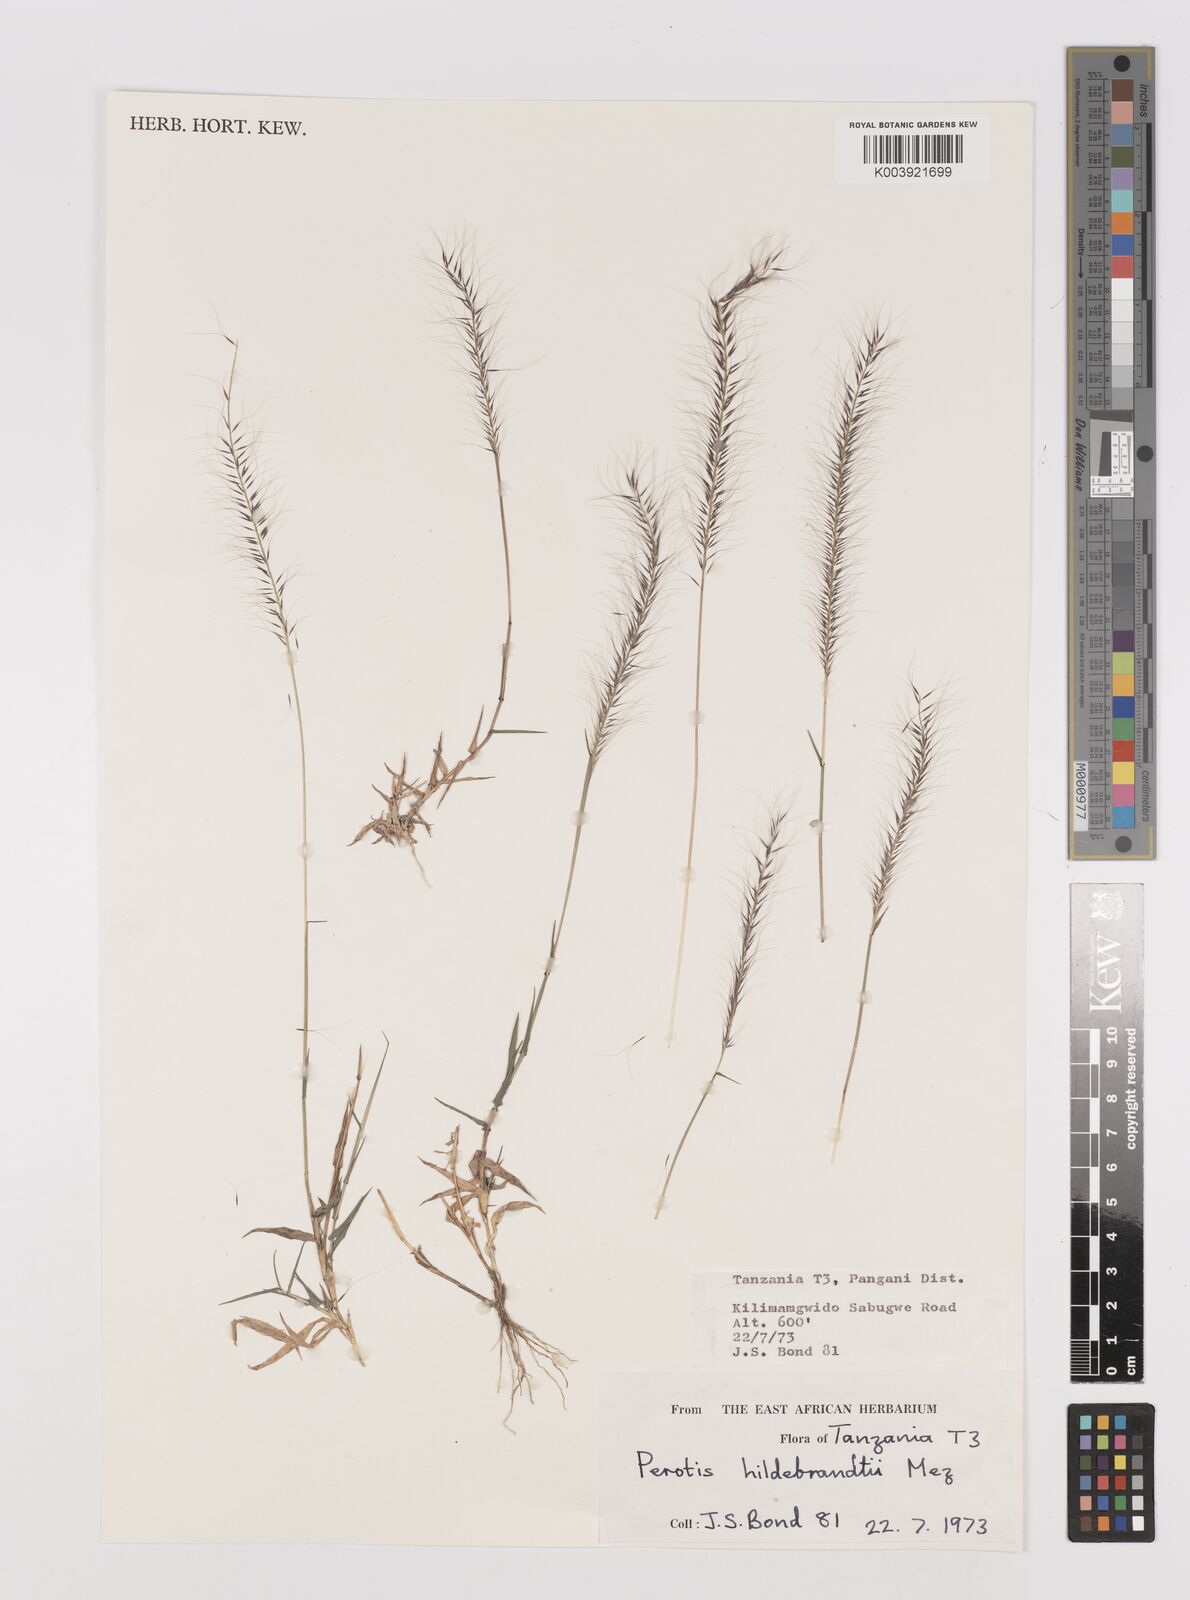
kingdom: Plantae
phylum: Tracheophyta
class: Liliopsida
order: Poales
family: Poaceae
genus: Perotis
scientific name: Perotis hildebrandtii
